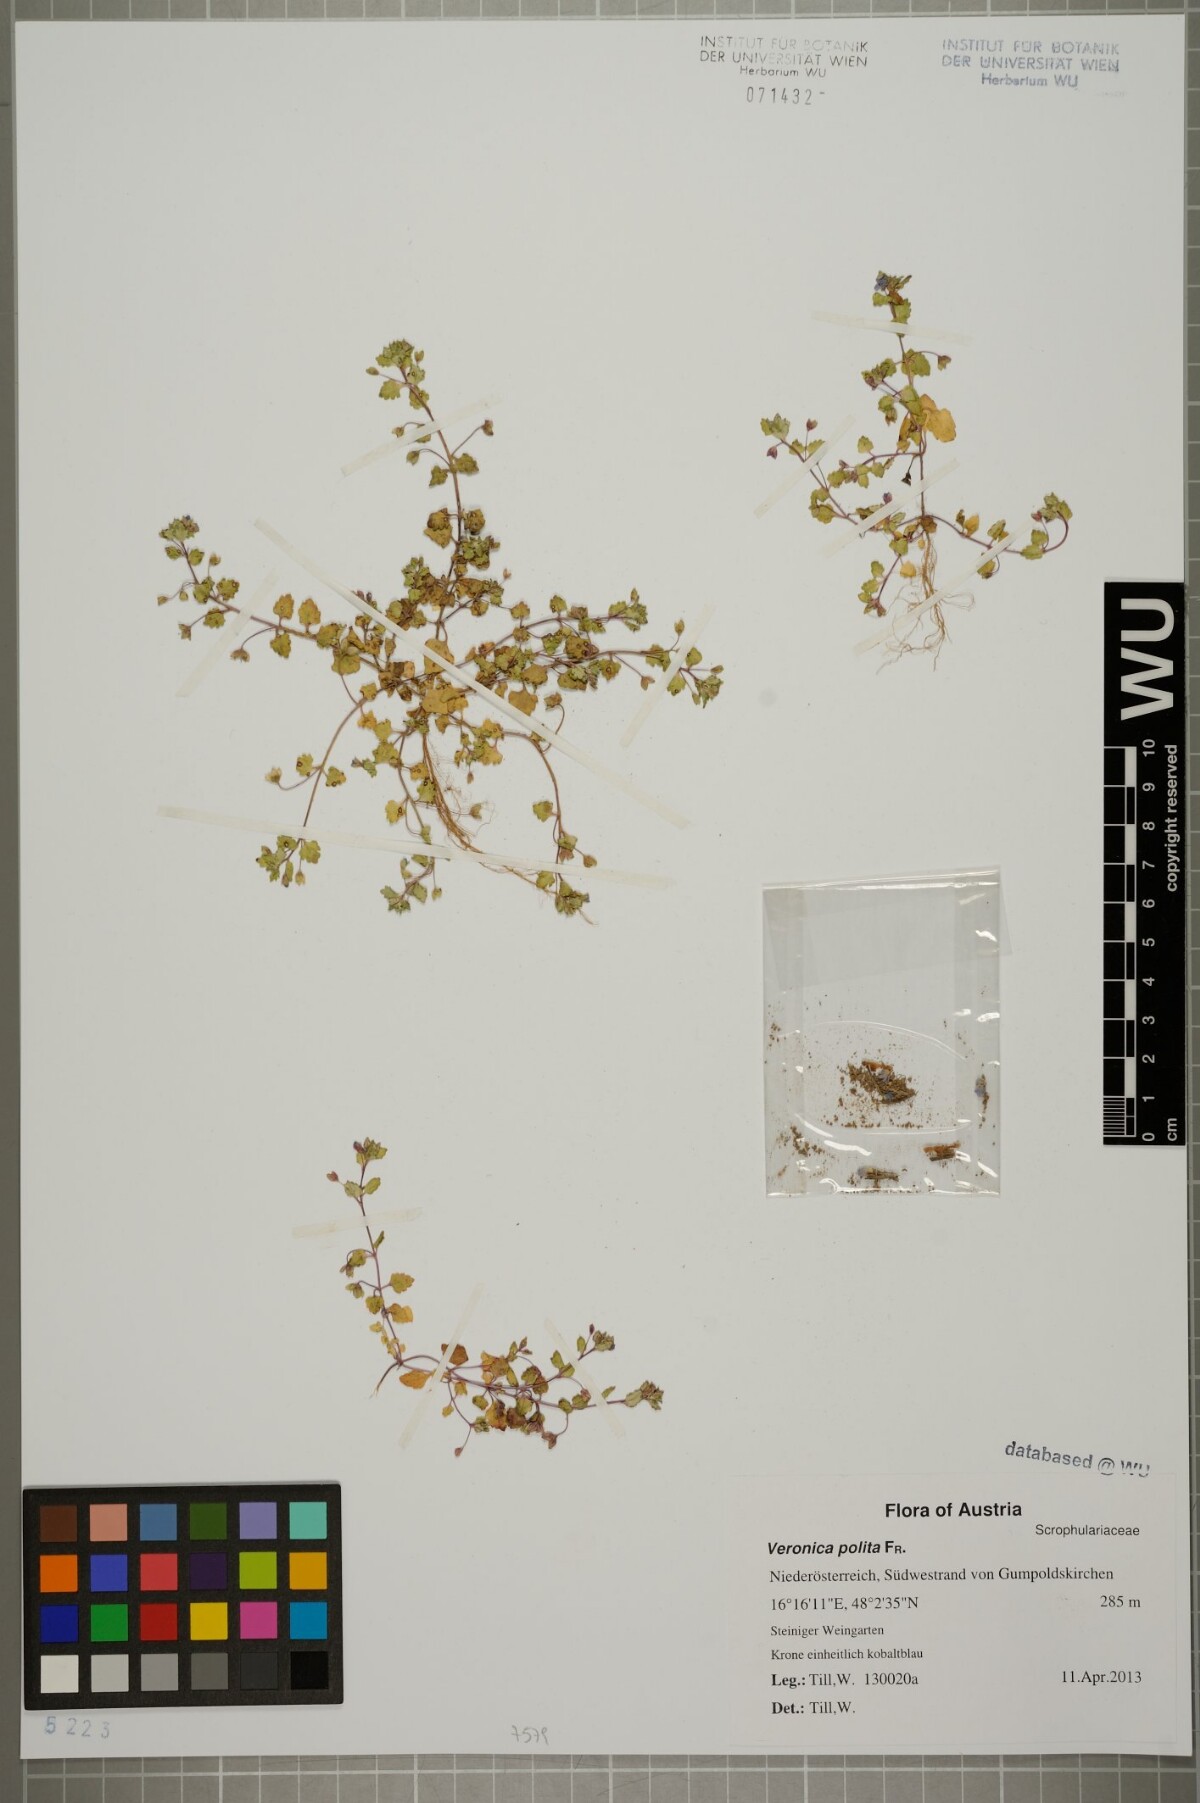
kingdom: Plantae
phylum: Tracheophyta
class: Magnoliopsida
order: Lamiales
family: Plantaginaceae
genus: Veronica
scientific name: Veronica polita
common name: Grey field-speedwell
